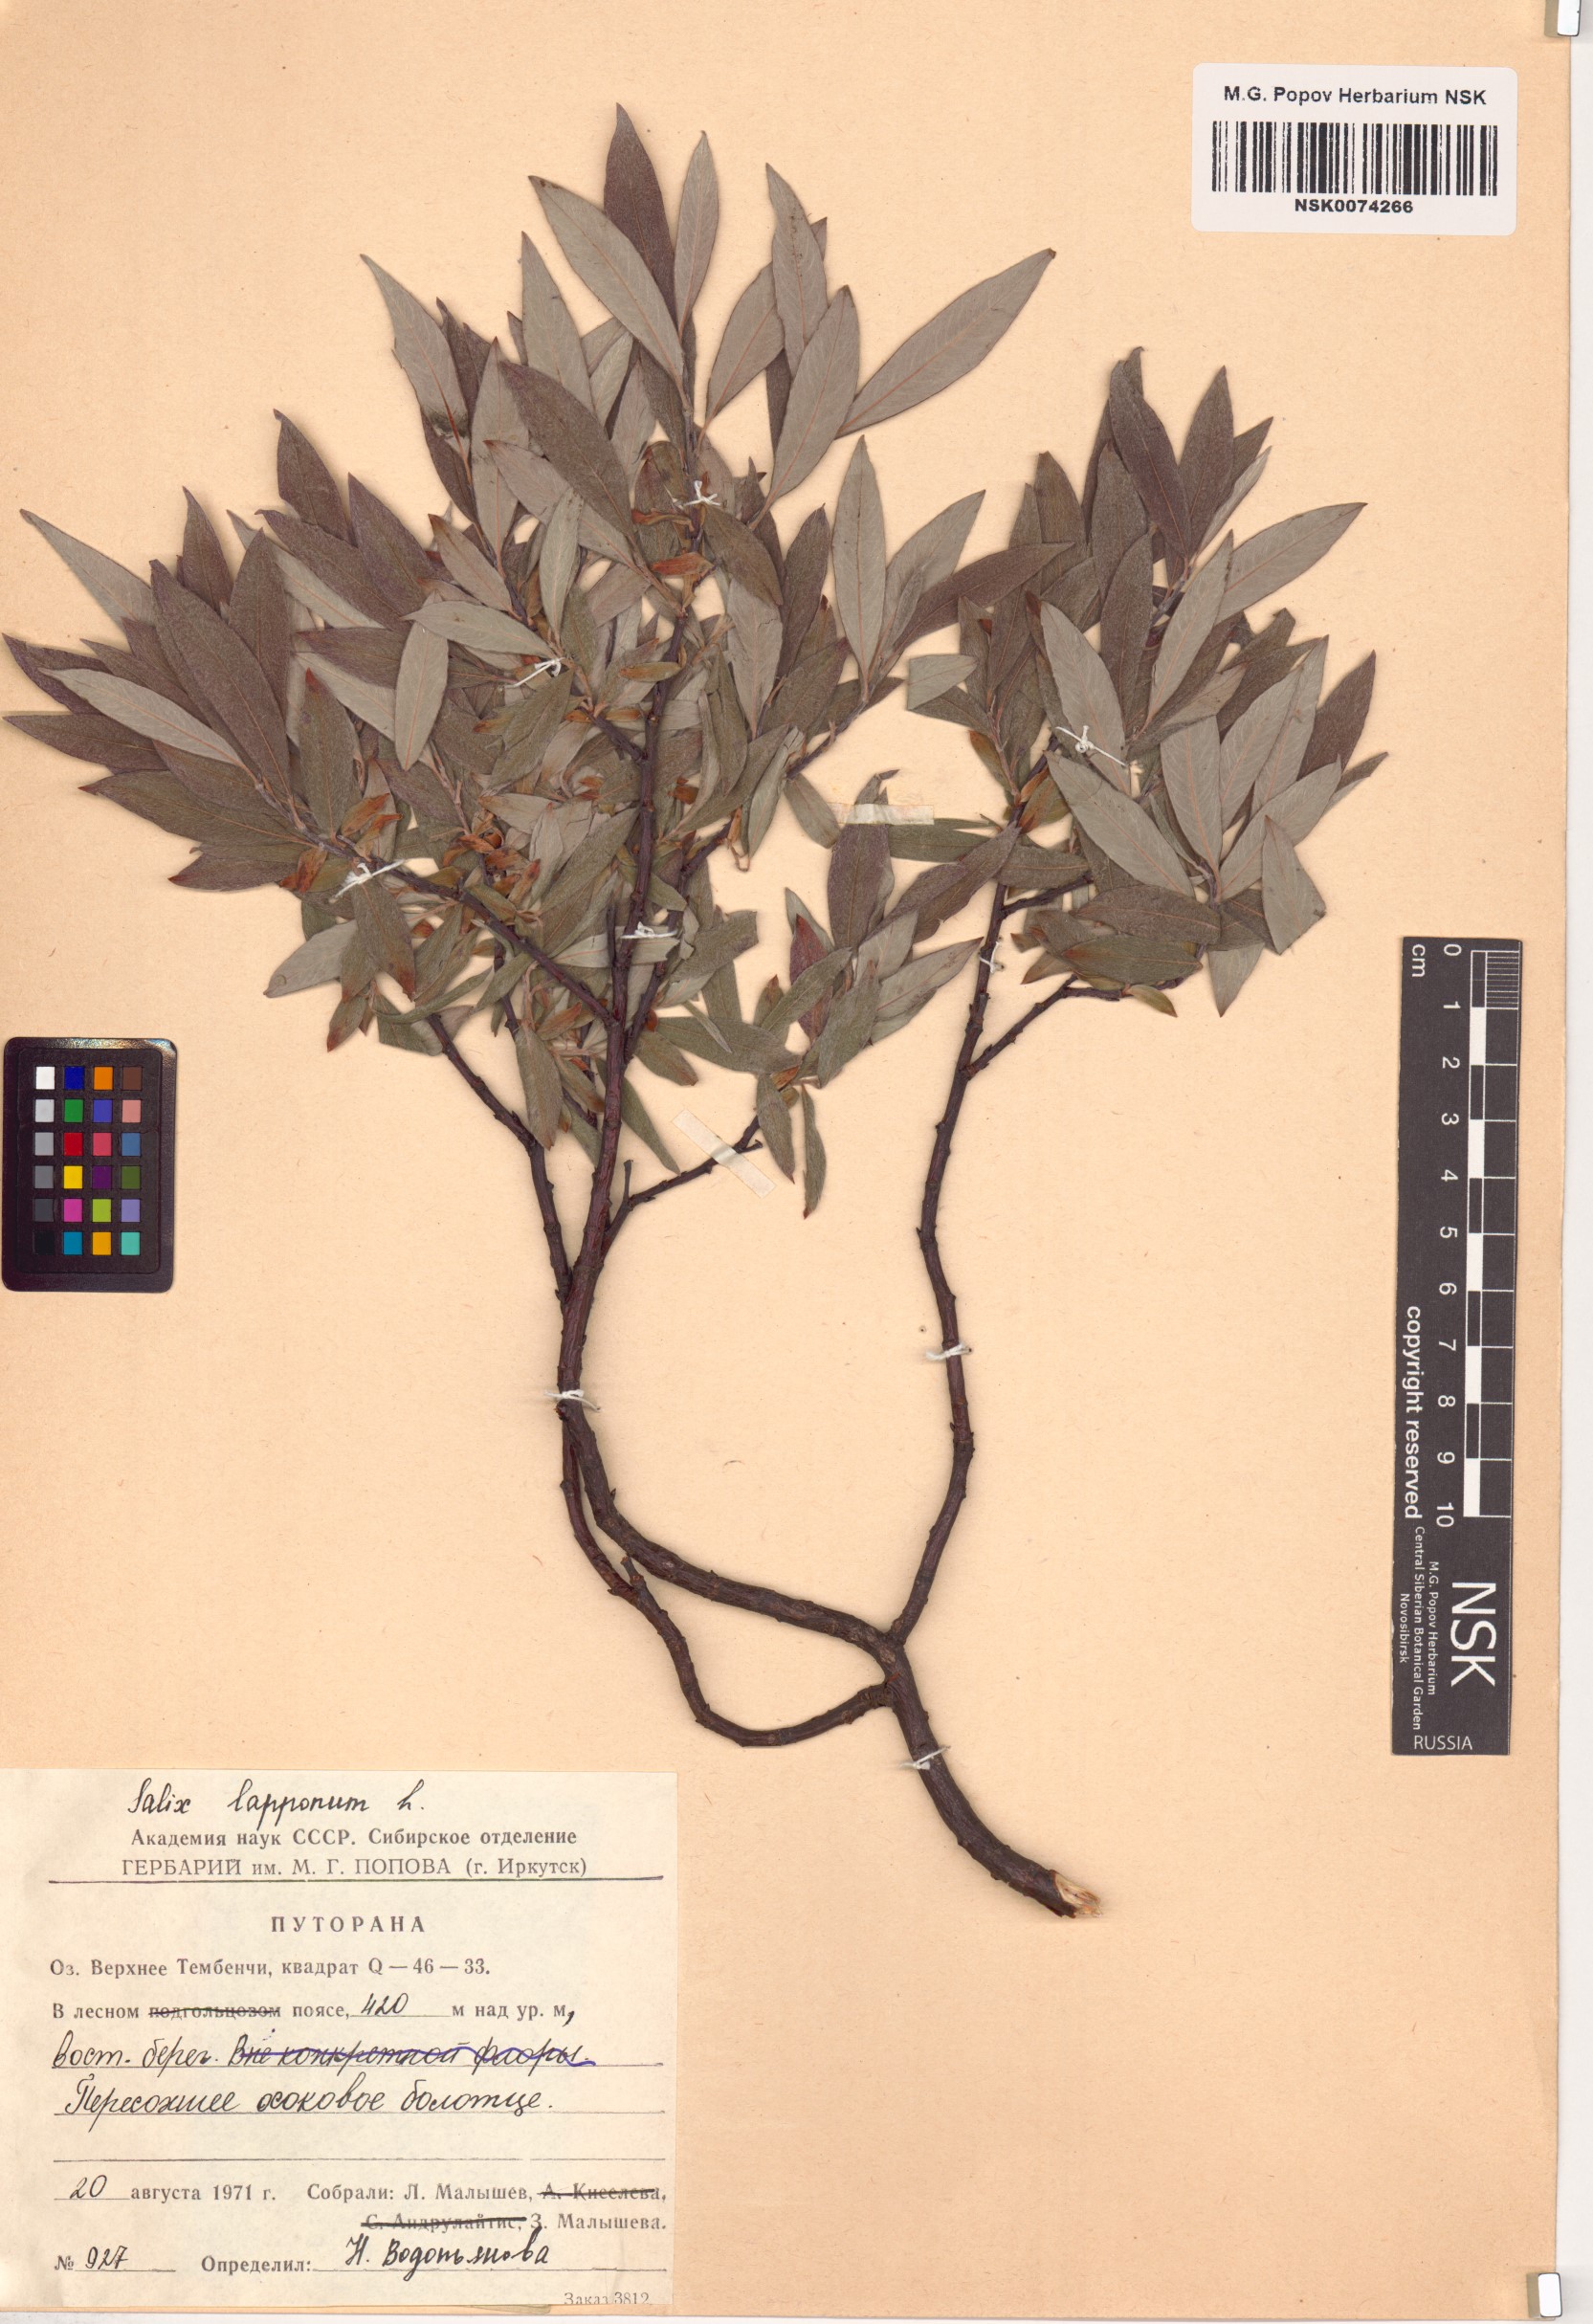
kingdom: Plantae
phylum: Tracheophyta
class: Magnoliopsida
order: Malpighiales
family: Salicaceae
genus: Salix
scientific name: Salix lapponum
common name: Downy willow
